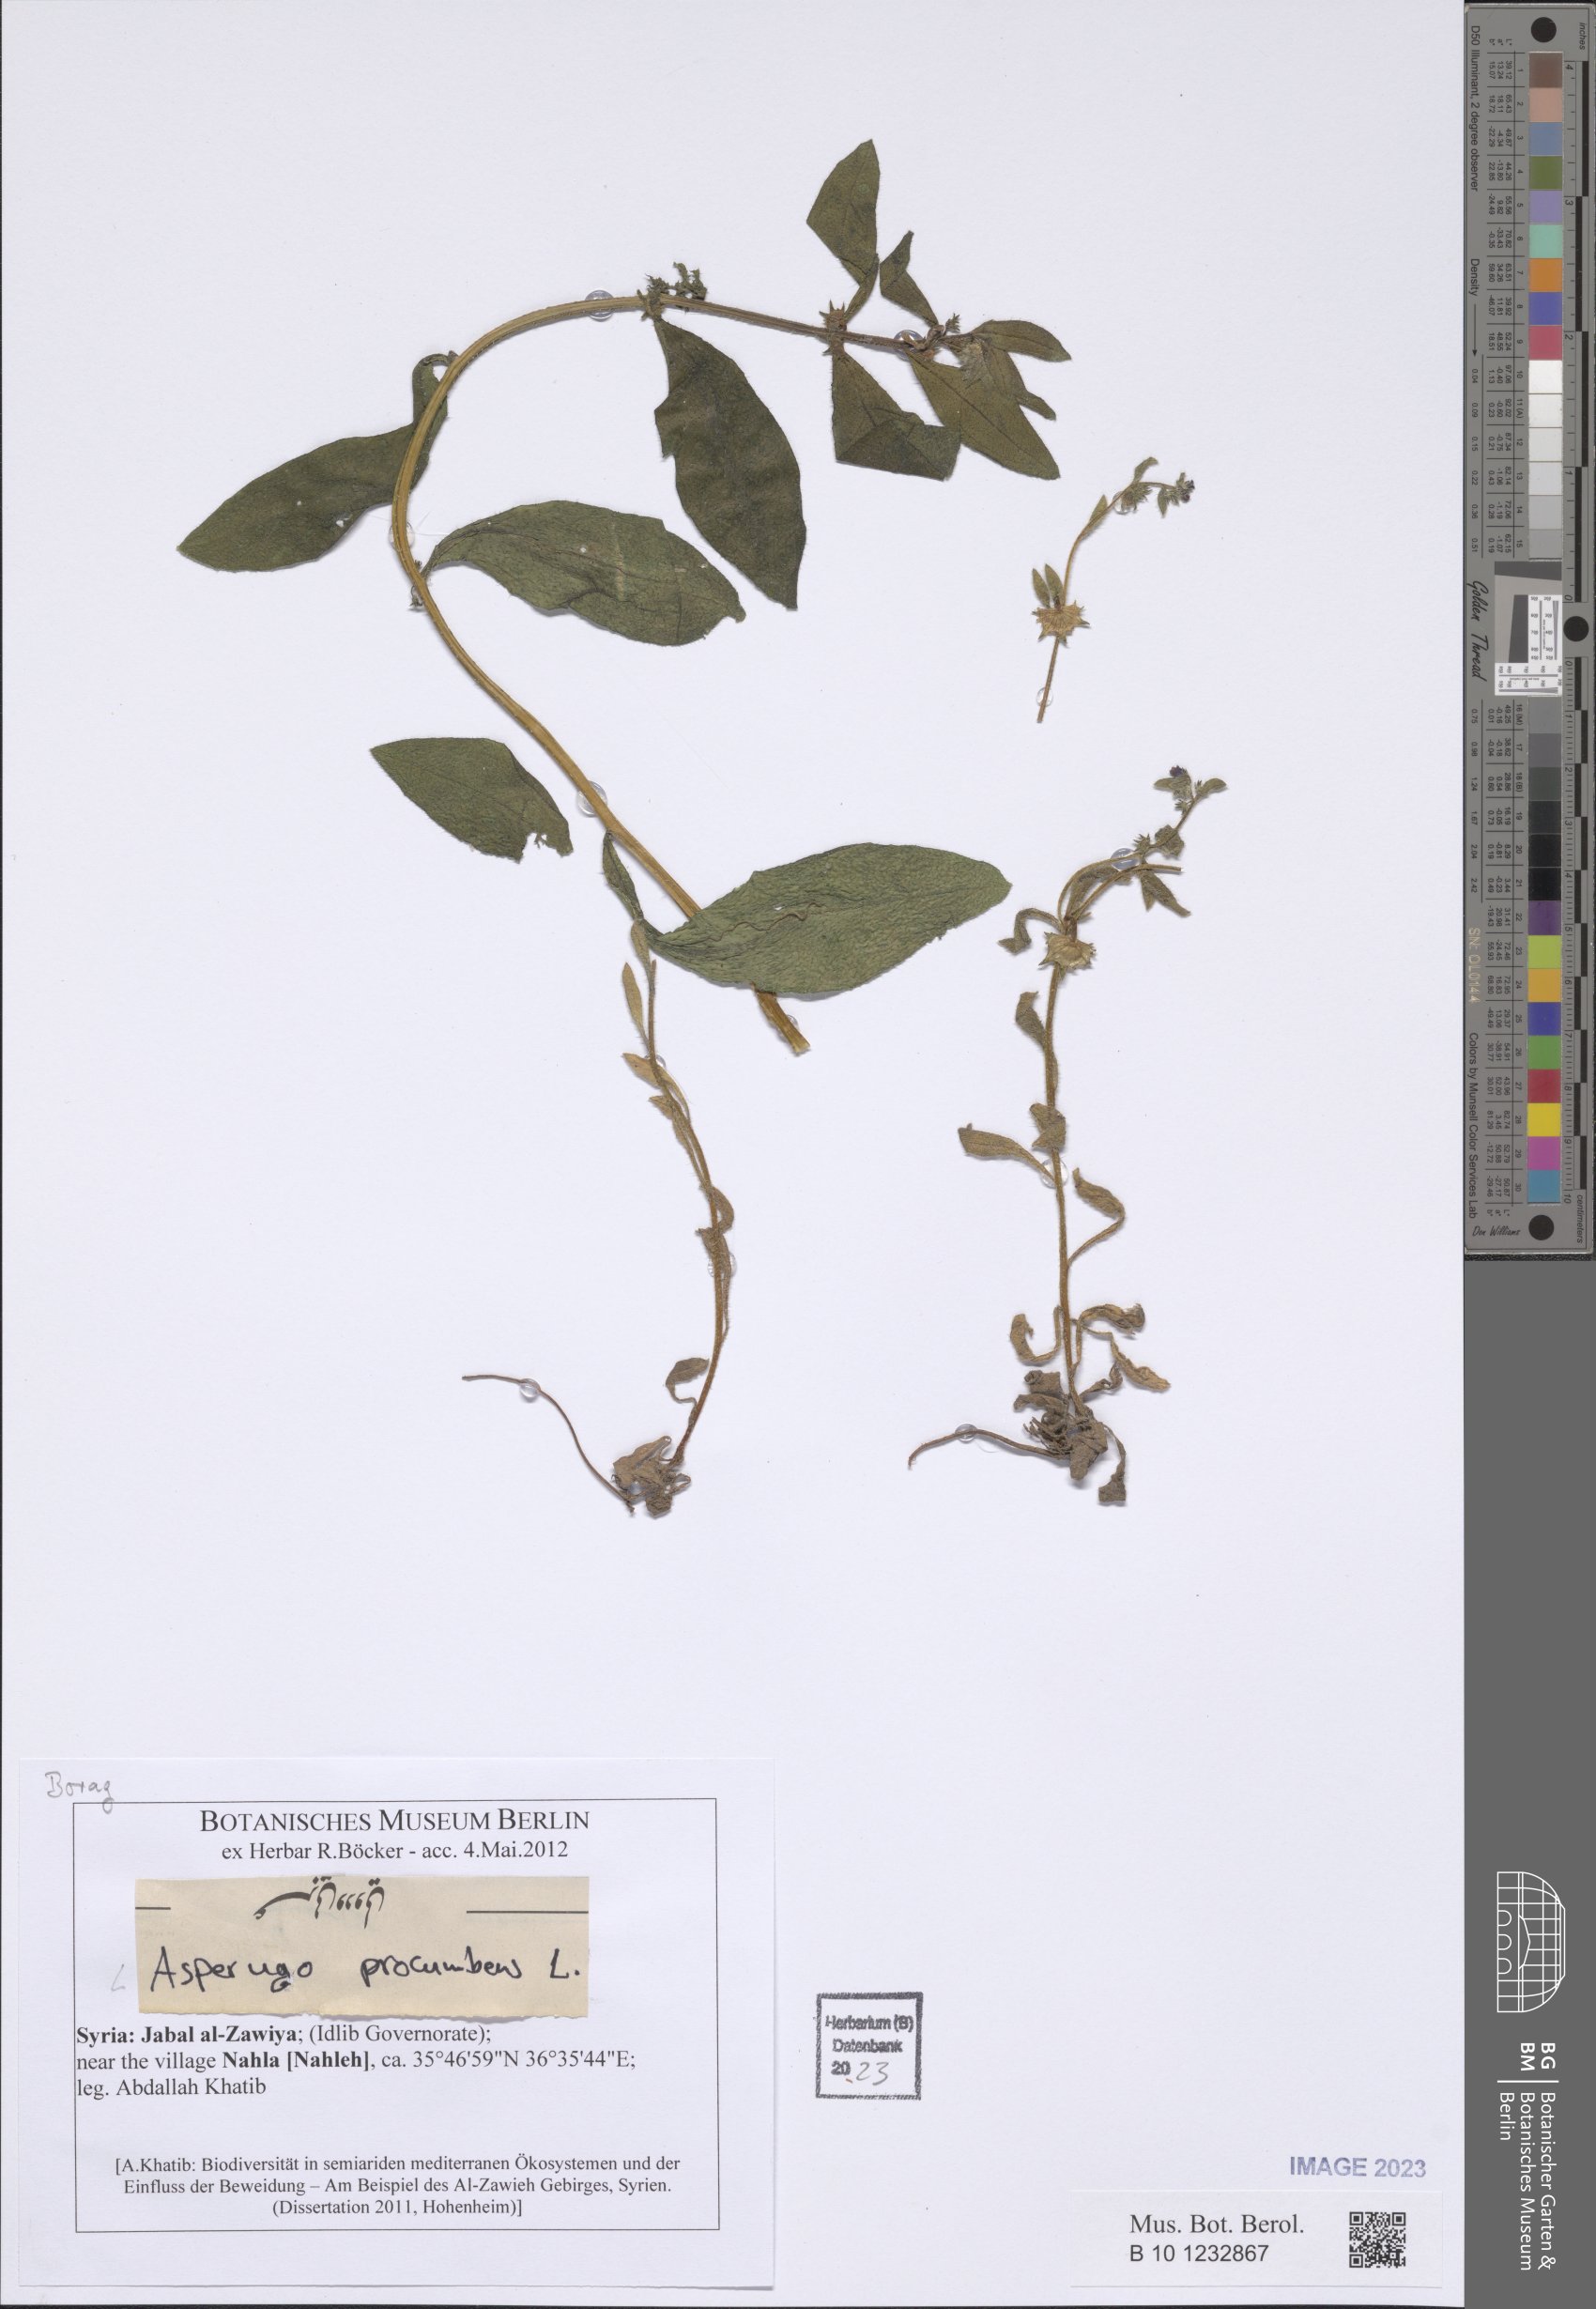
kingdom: Plantae
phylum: Tracheophyta
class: Magnoliopsida
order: Boraginales
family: Boraginaceae
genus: Asperugo
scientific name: Asperugo procumbens
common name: Madwort
